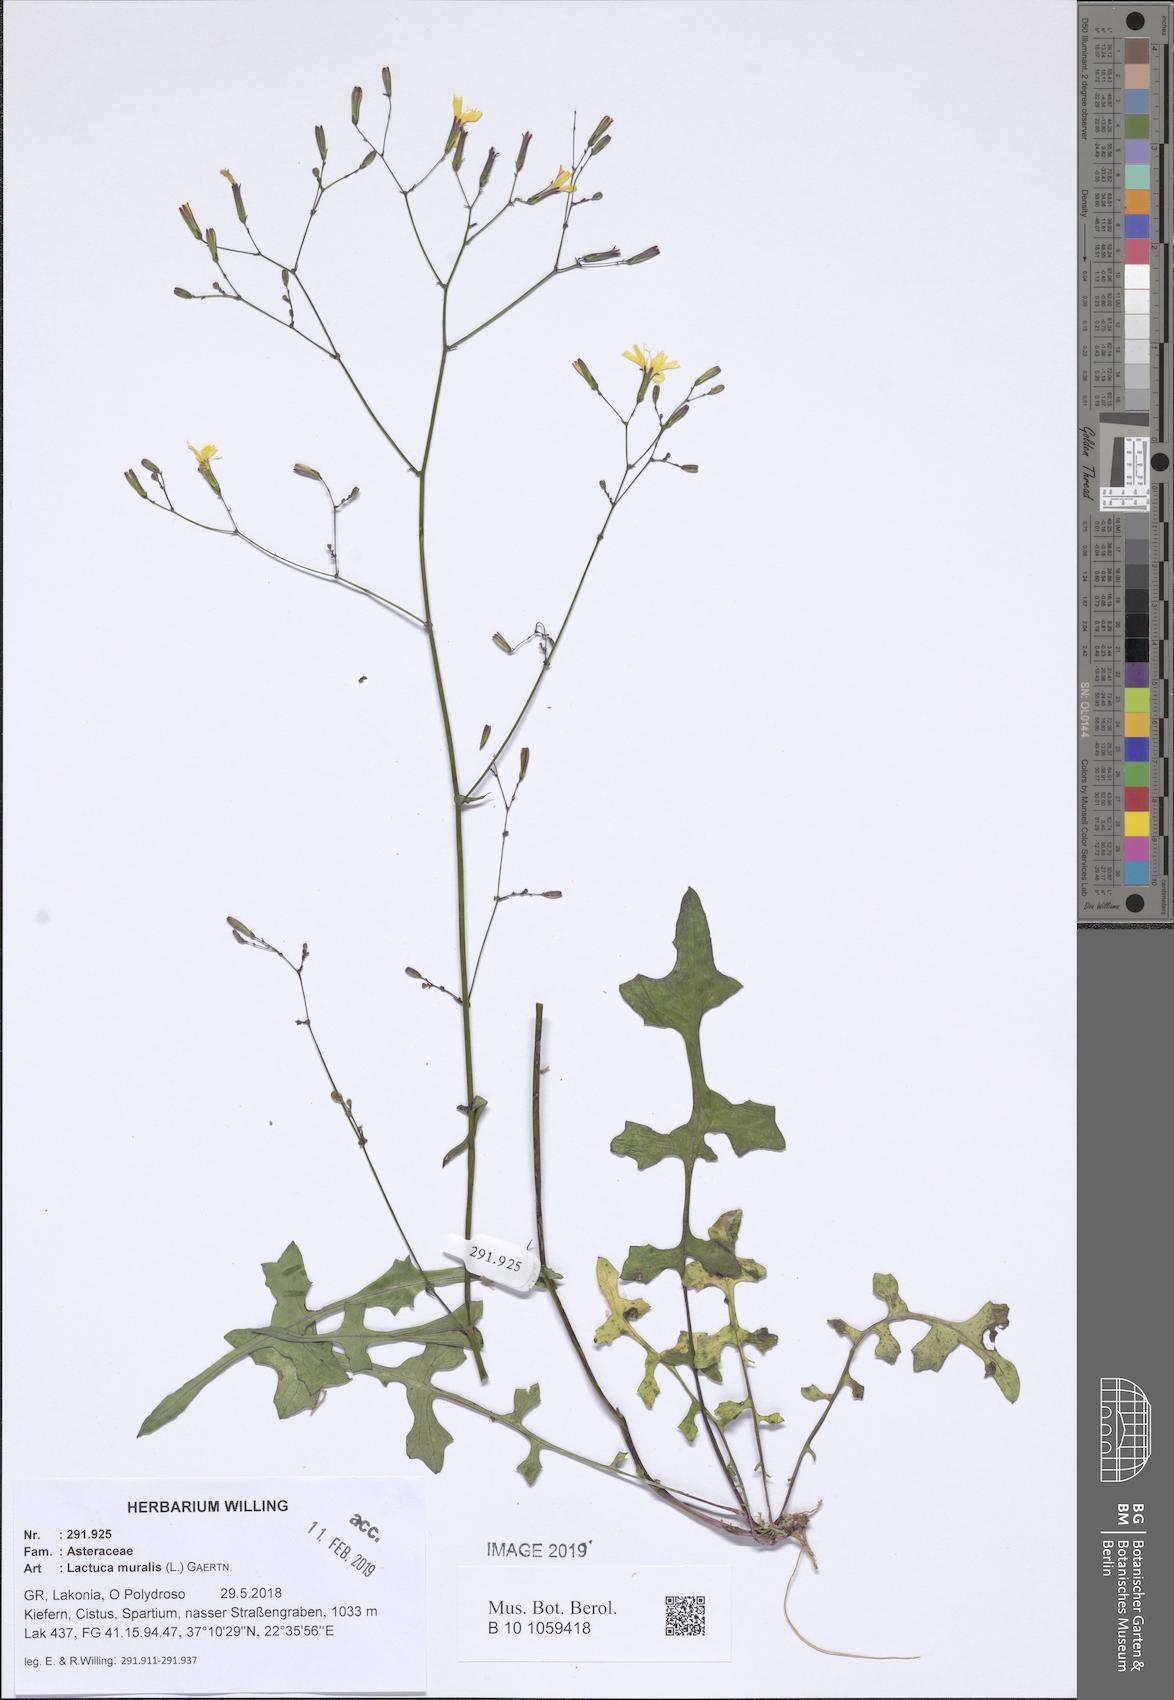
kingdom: Plantae
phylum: Tracheophyta
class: Magnoliopsida
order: Asterales
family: Asteraceae
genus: Mycelis
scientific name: Mycelis muralis
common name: Wall lettuce
